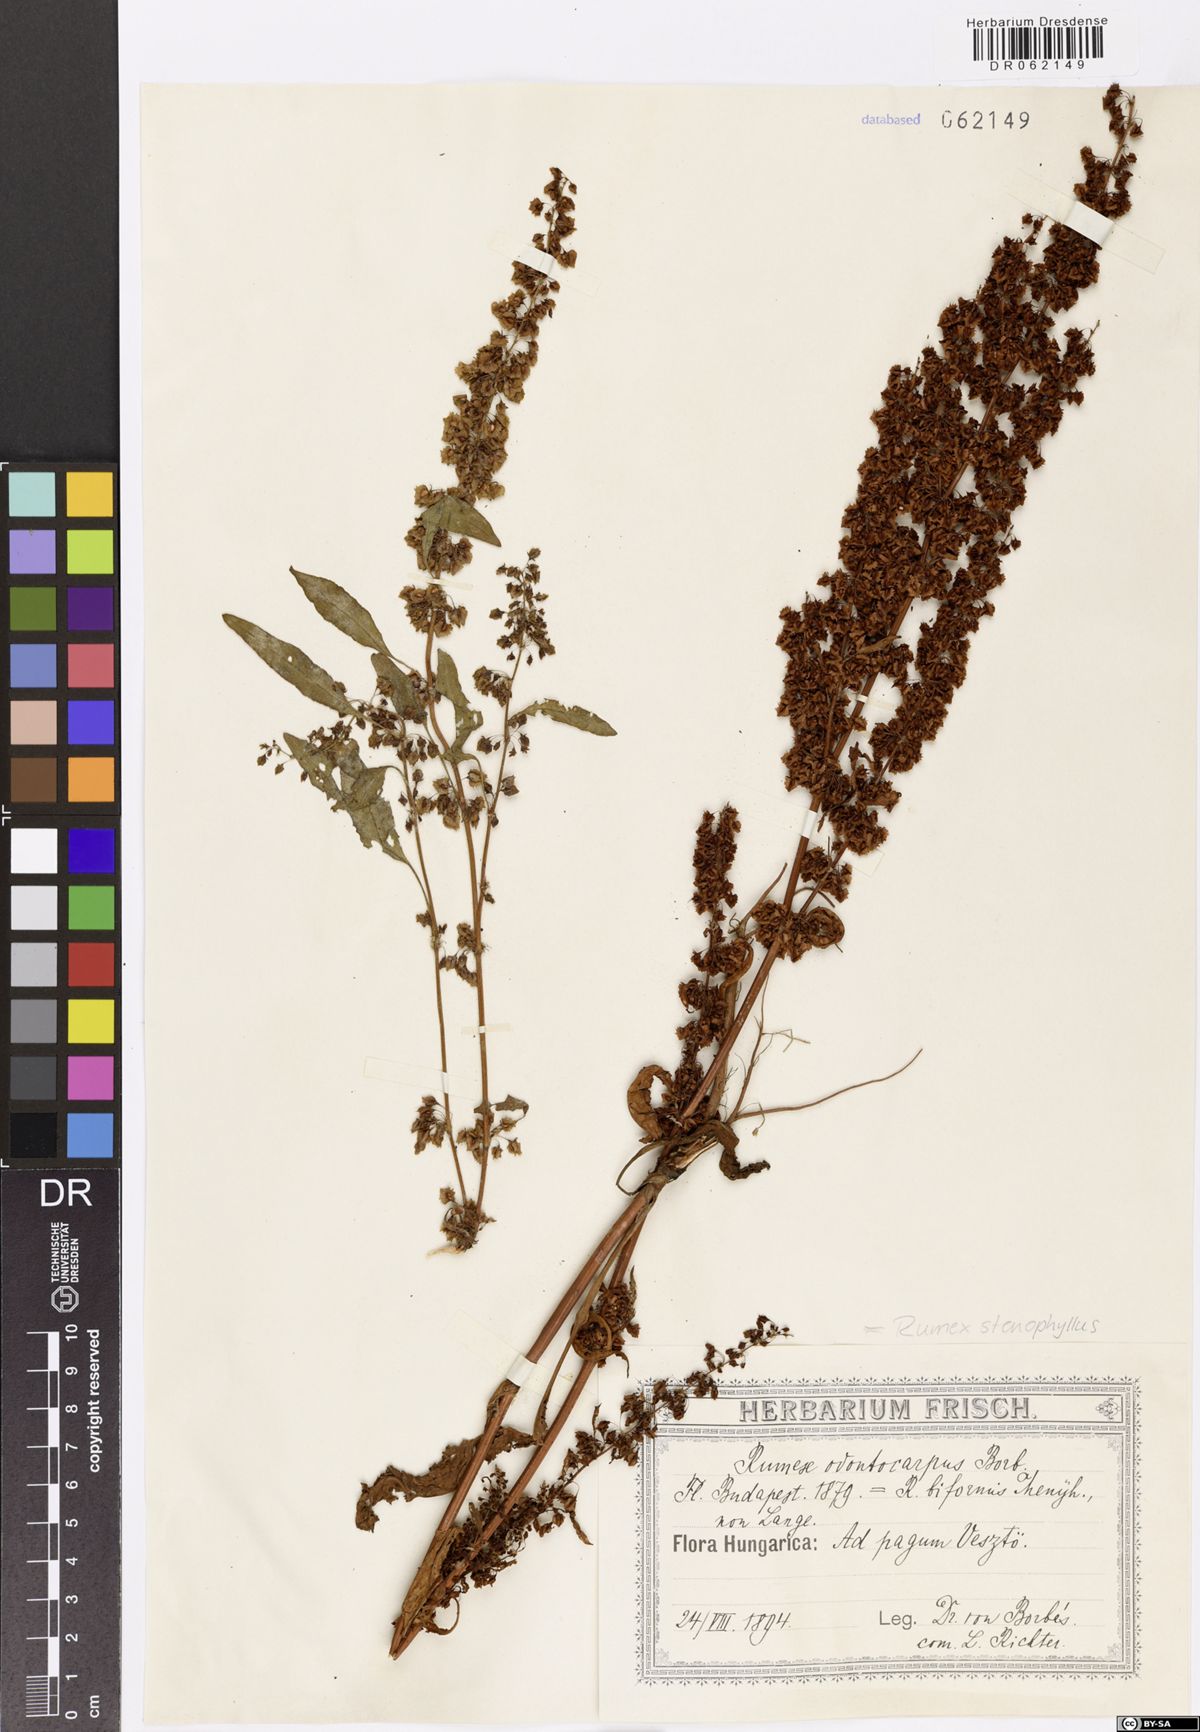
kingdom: Plantae
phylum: Tracheophyta
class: Magnoliopsida
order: Caryophyllales
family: Polygonaceae
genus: Rumex
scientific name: Rumex stenophyllus
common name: Narrowleaf dock
